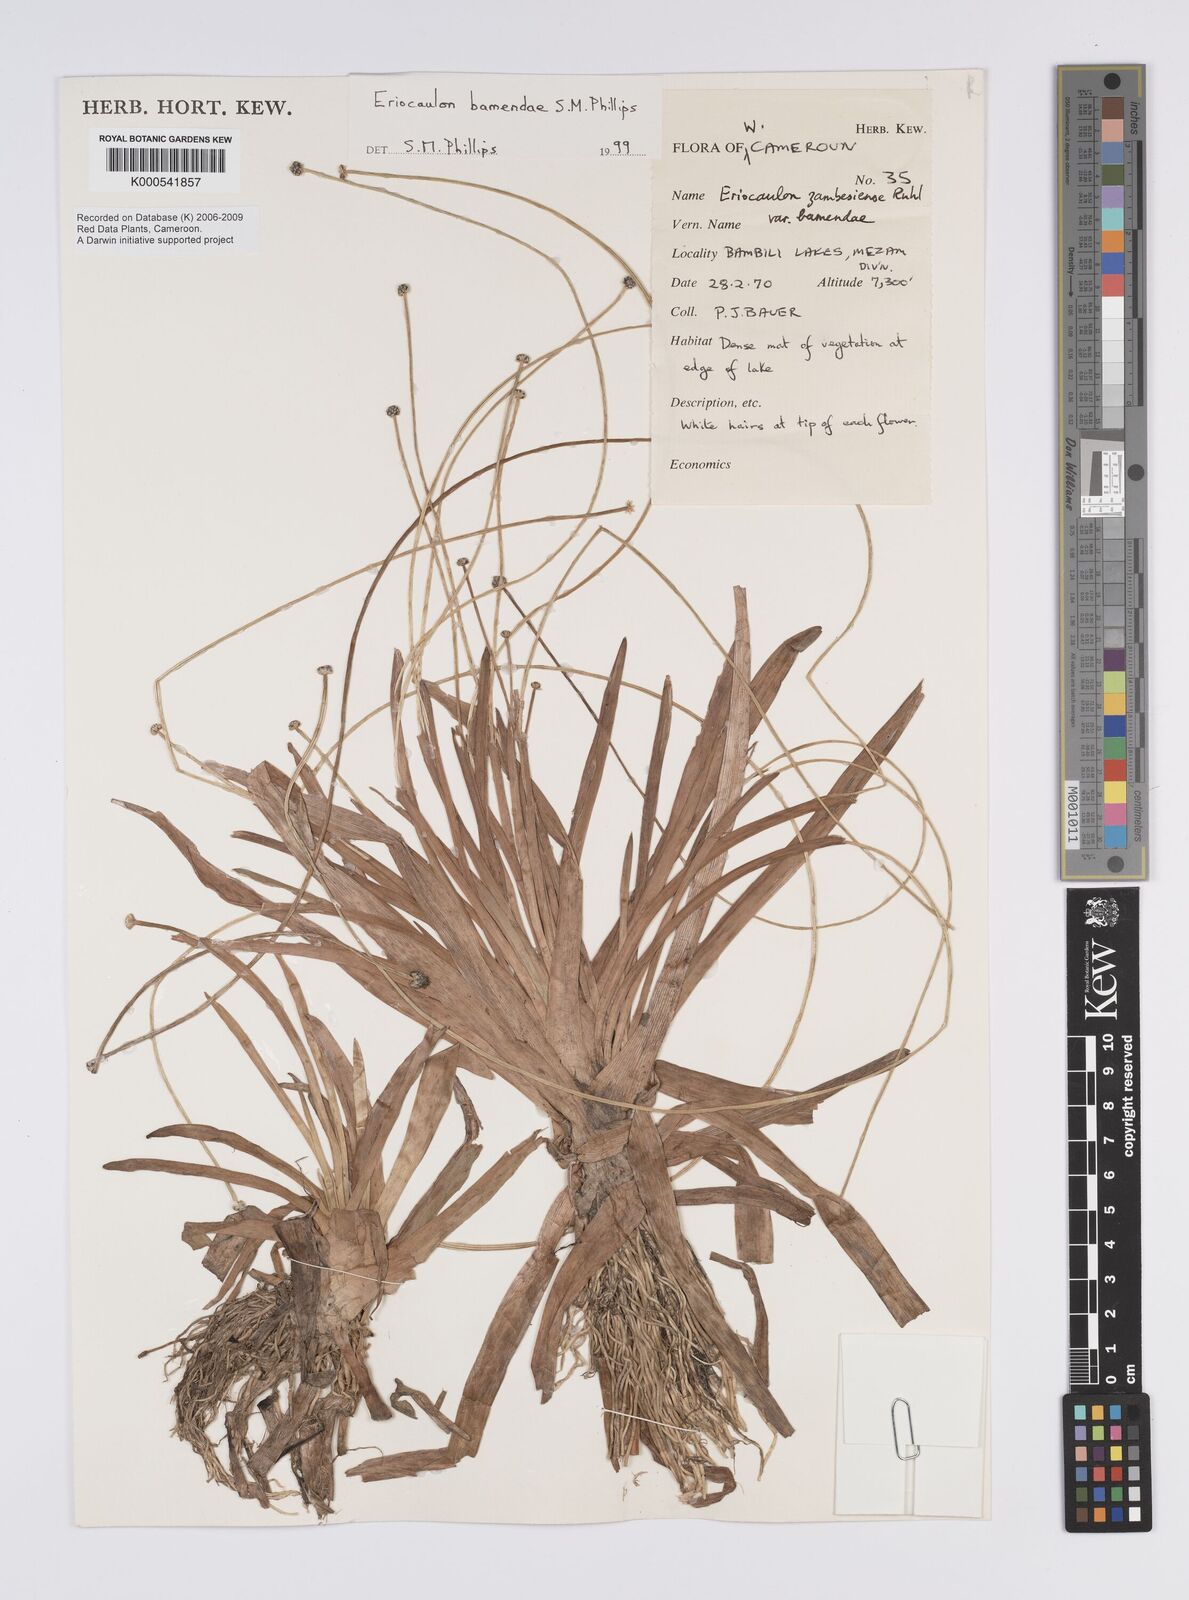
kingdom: Plantae
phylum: Tracheophyta
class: Liliopsida
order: Poales
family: Eriocaulaceae
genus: Eriocaulon
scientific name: Eriocaulon bamendae
